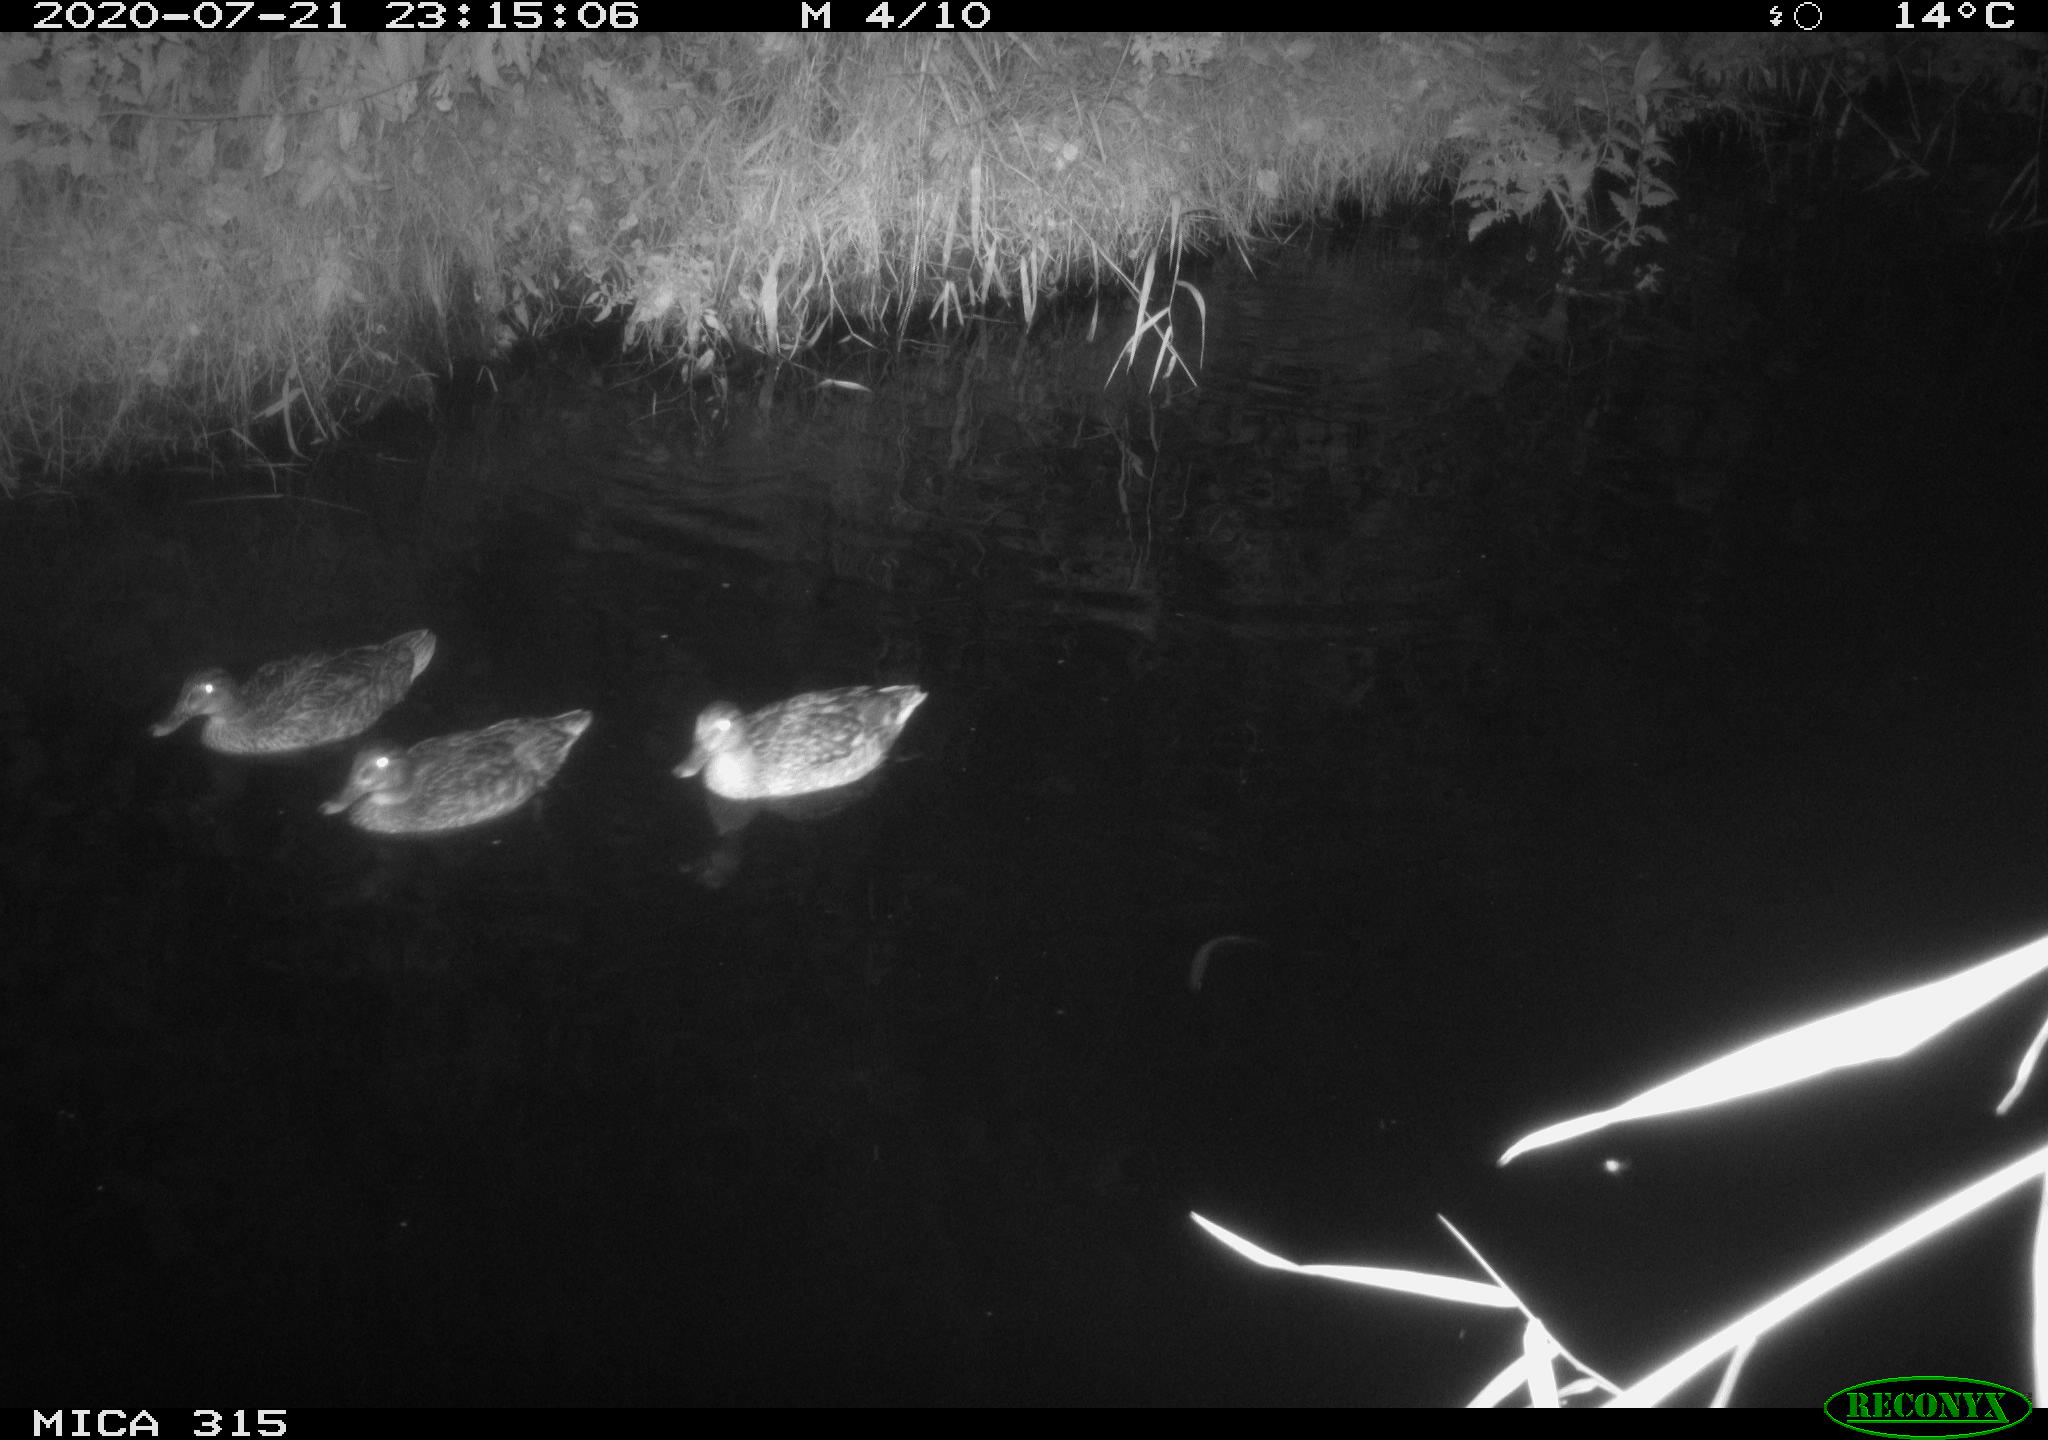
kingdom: Animalia
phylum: Chordata
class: Aves
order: Anseriformes
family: Anatidae
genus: Anas
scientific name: Anas platyrhynchos
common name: Mallard
